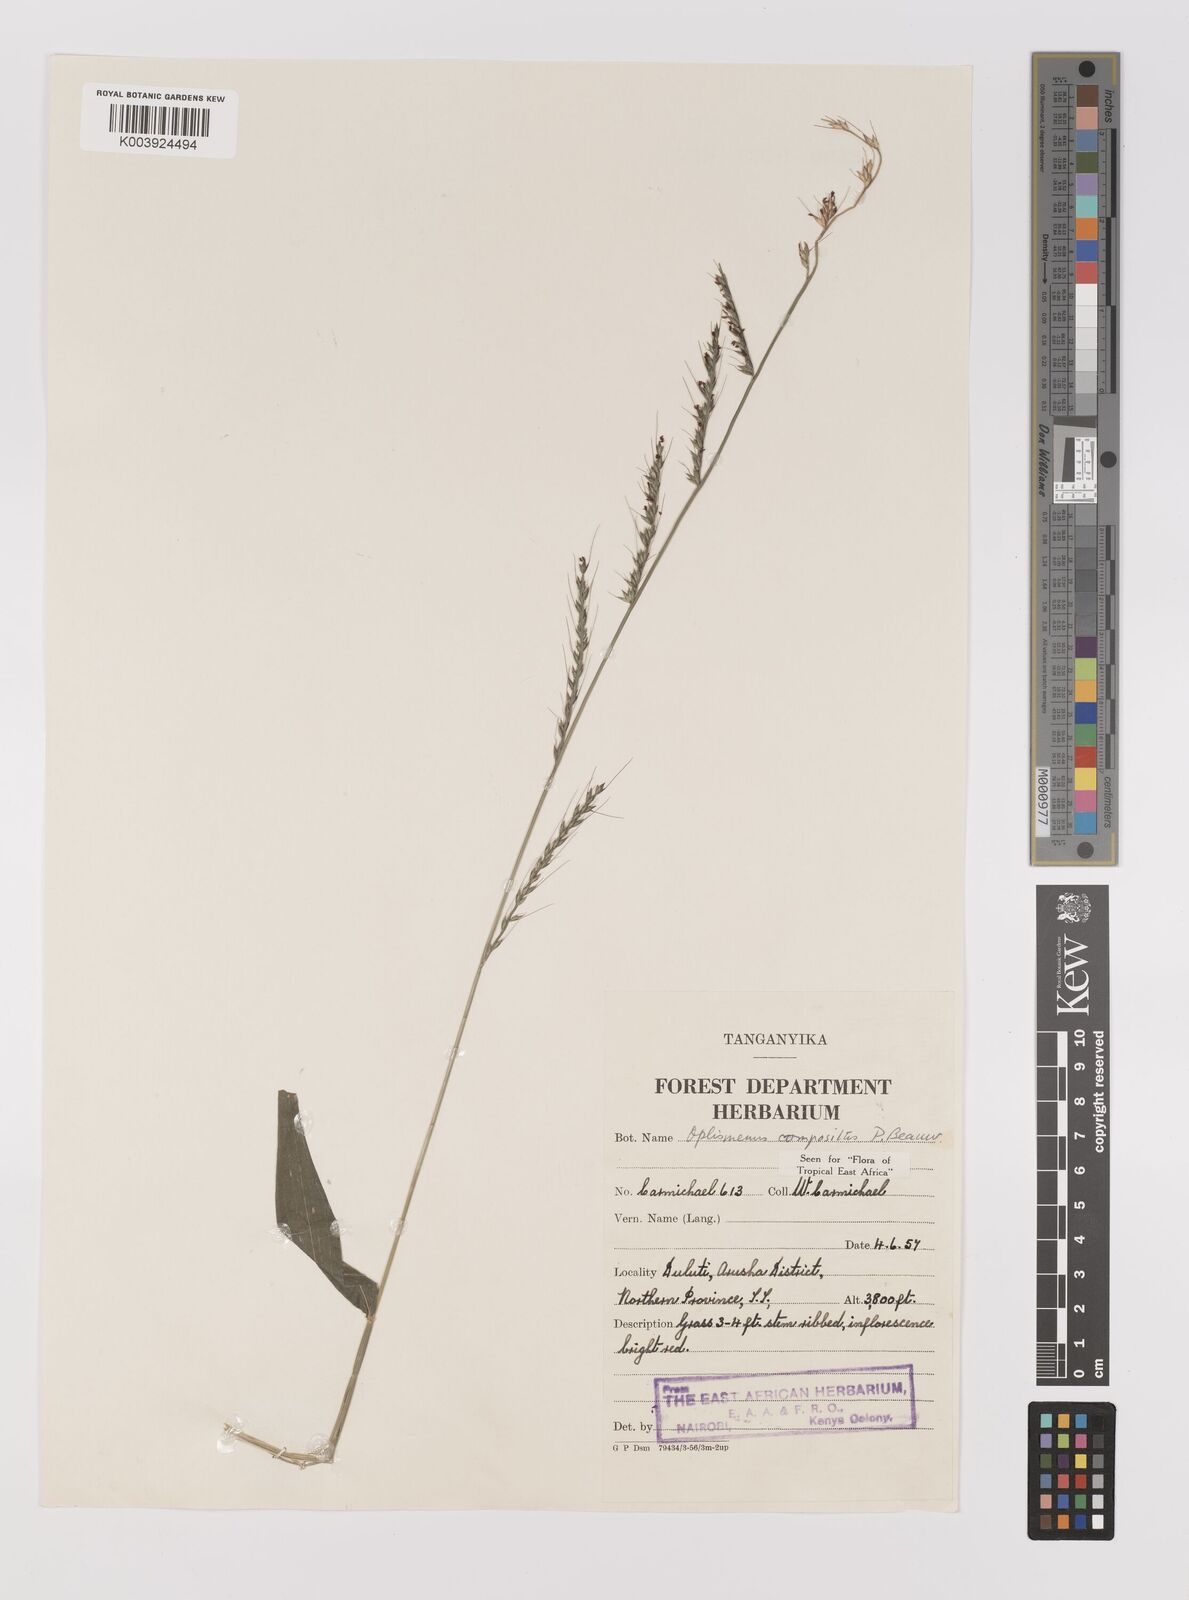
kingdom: Plantae
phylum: Tracheophyta
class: Liliopsida
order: Poales
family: Poaceae
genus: Oplismenus
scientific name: Oplismenus compositus
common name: Running mountain grass
